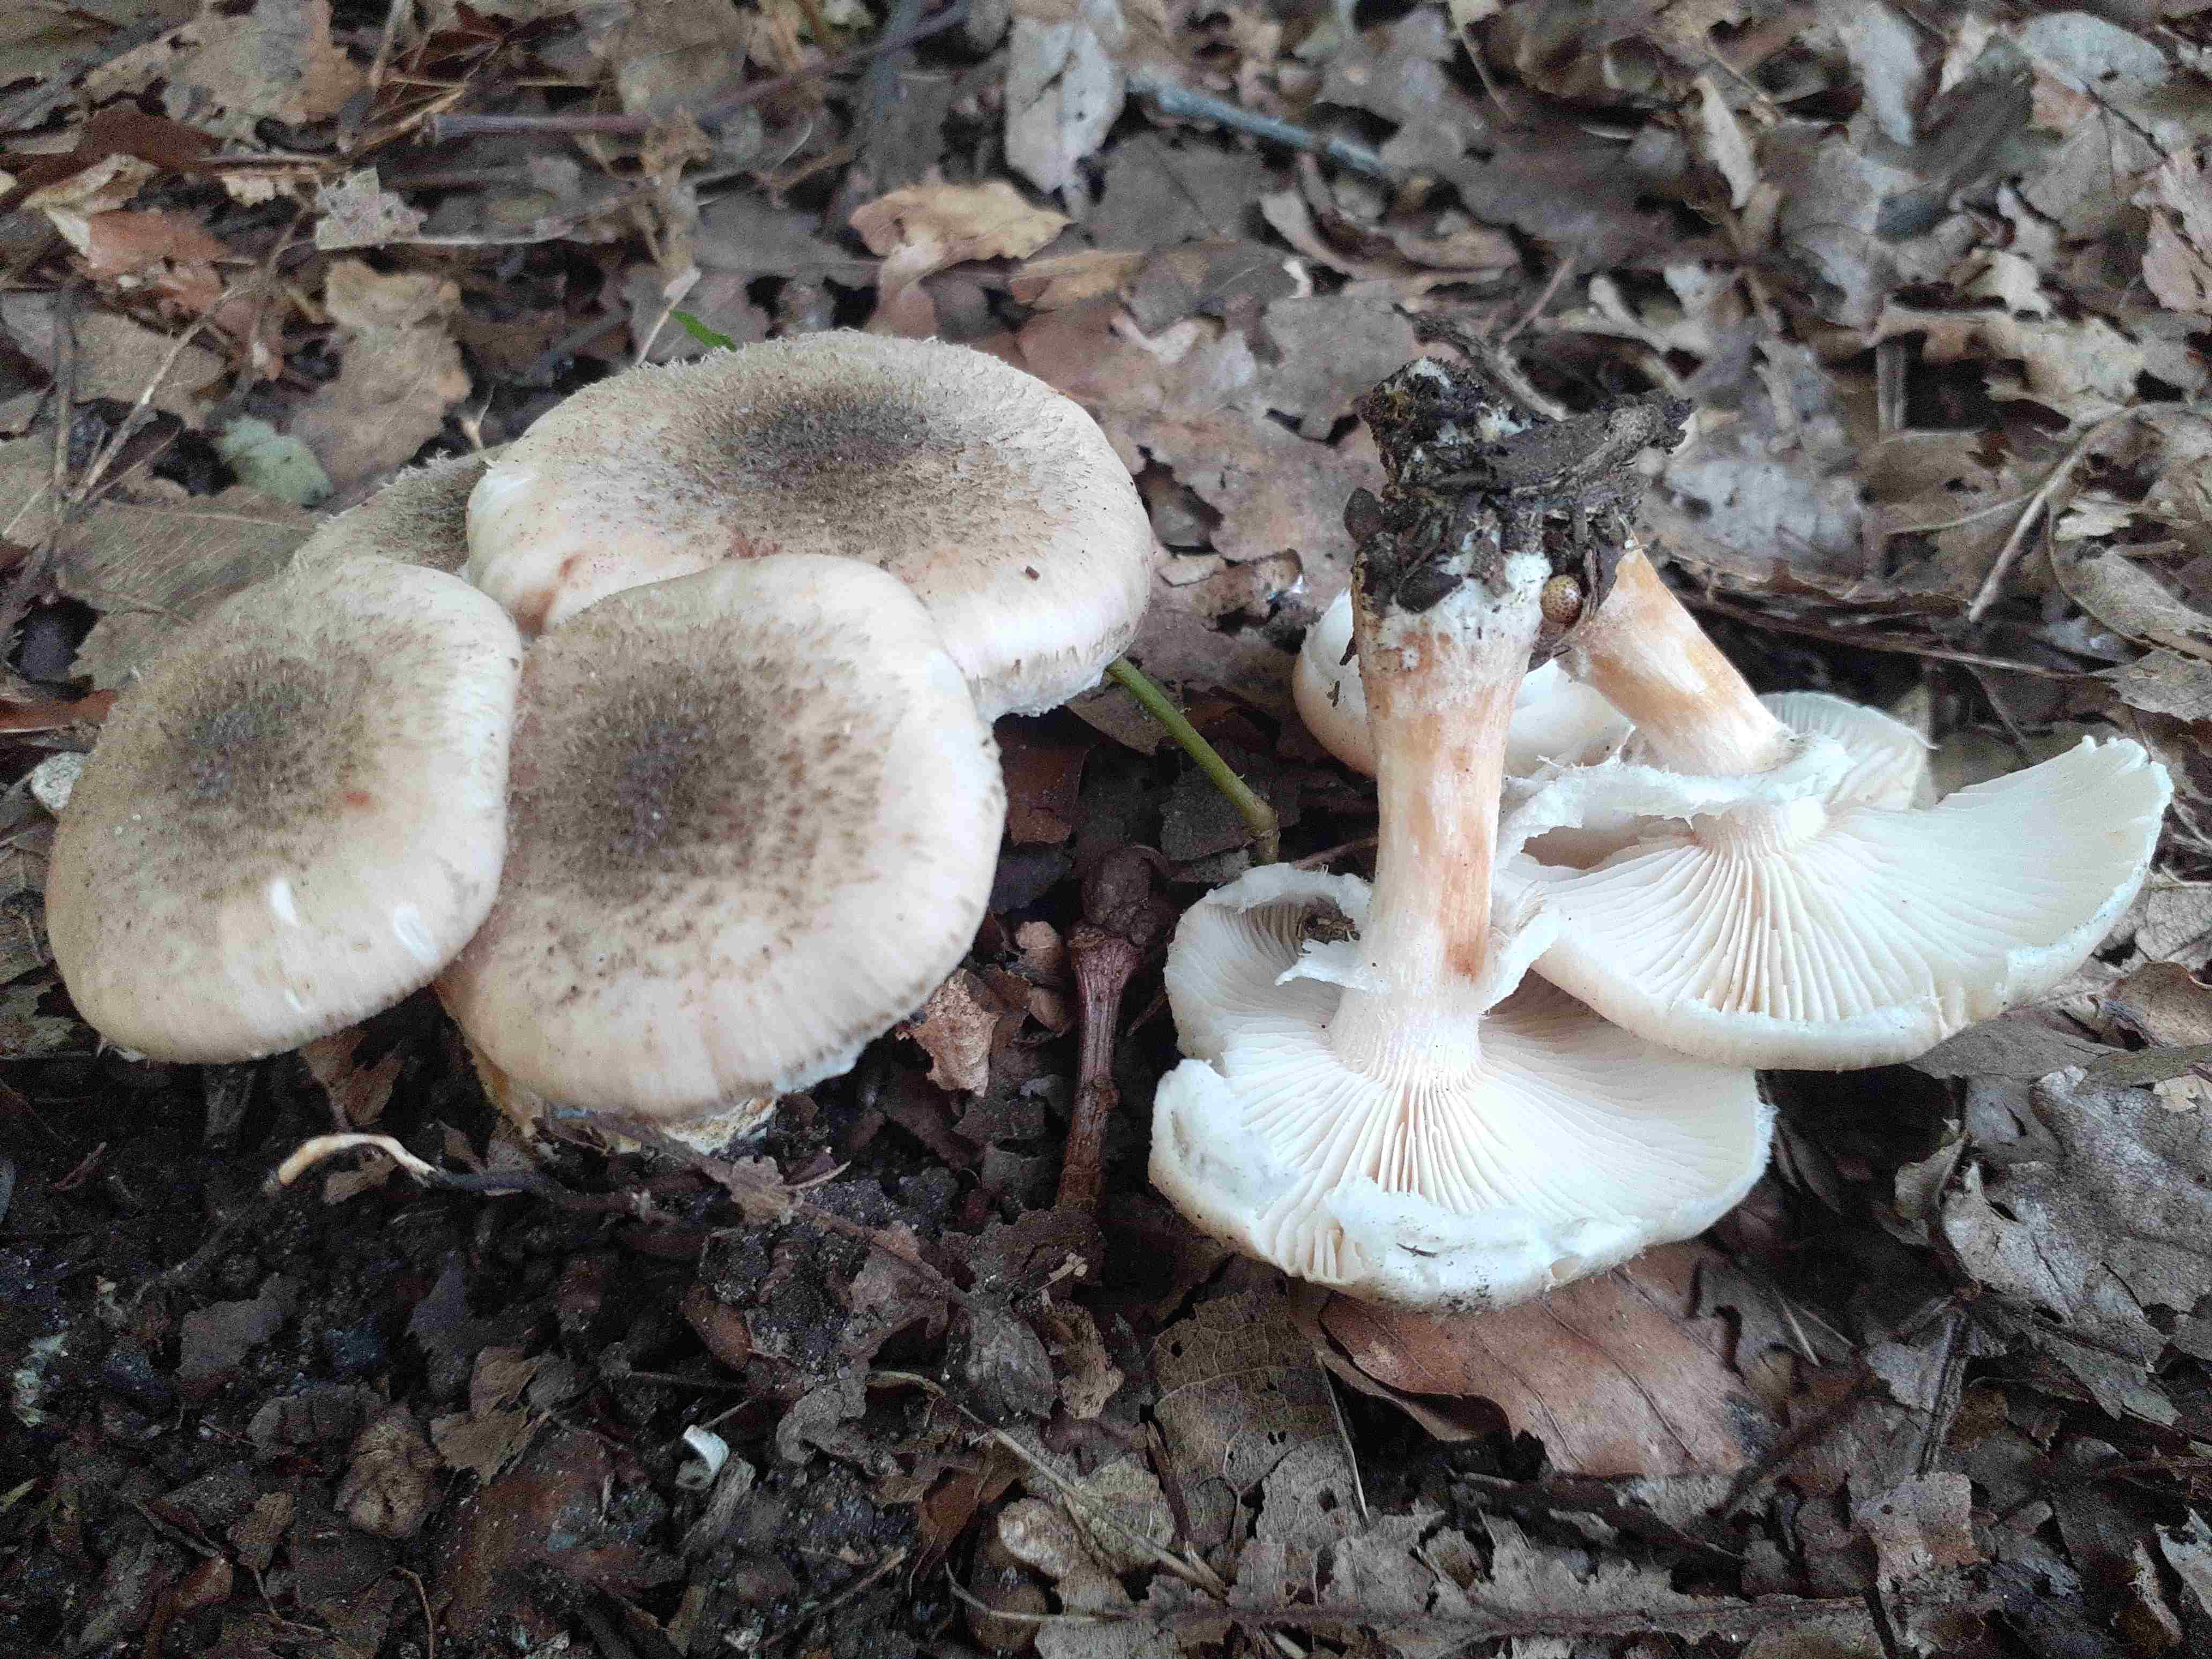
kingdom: Fungi
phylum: Basidiomycota
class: Agaricomycetes
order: Agaricales
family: Physalacriaceae
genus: Armillaria
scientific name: Armillaria cepistipes
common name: knoldfodet honningsvamp
